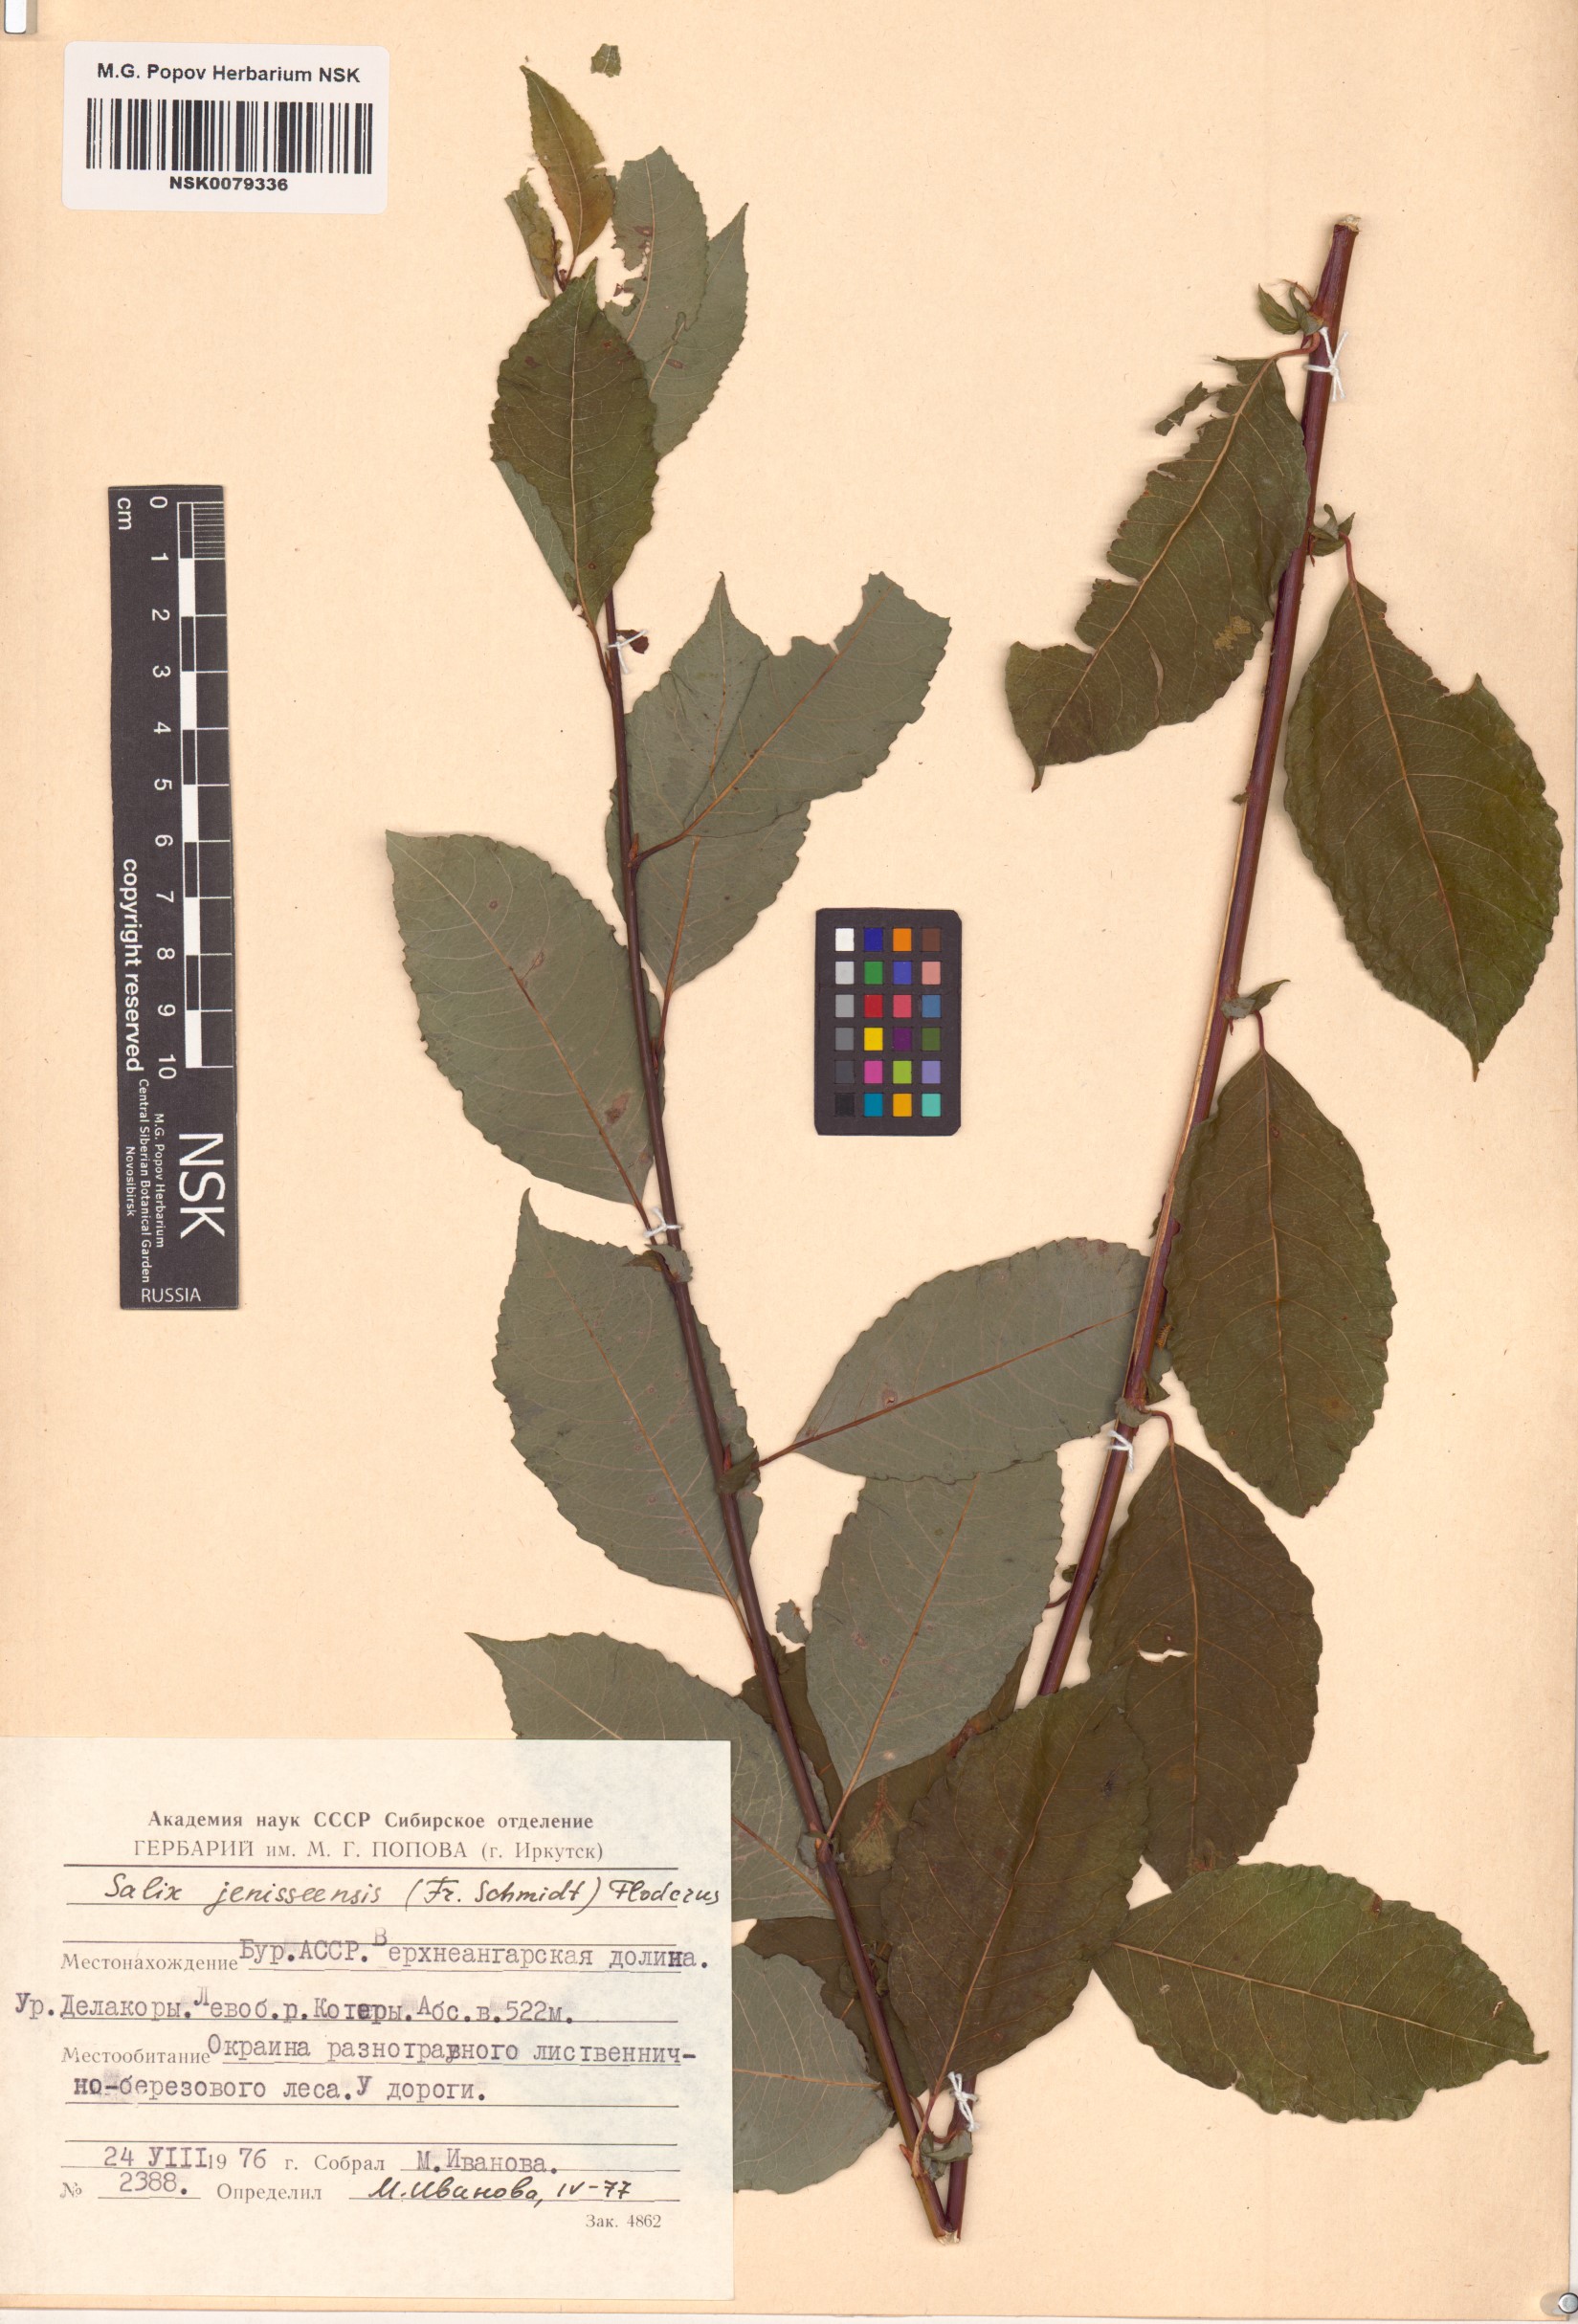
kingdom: Plantae
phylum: Tracheophyta
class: Magnoliopsida
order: Malpighiales
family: Salicaceae
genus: Salix
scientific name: Salix jenisseensis
